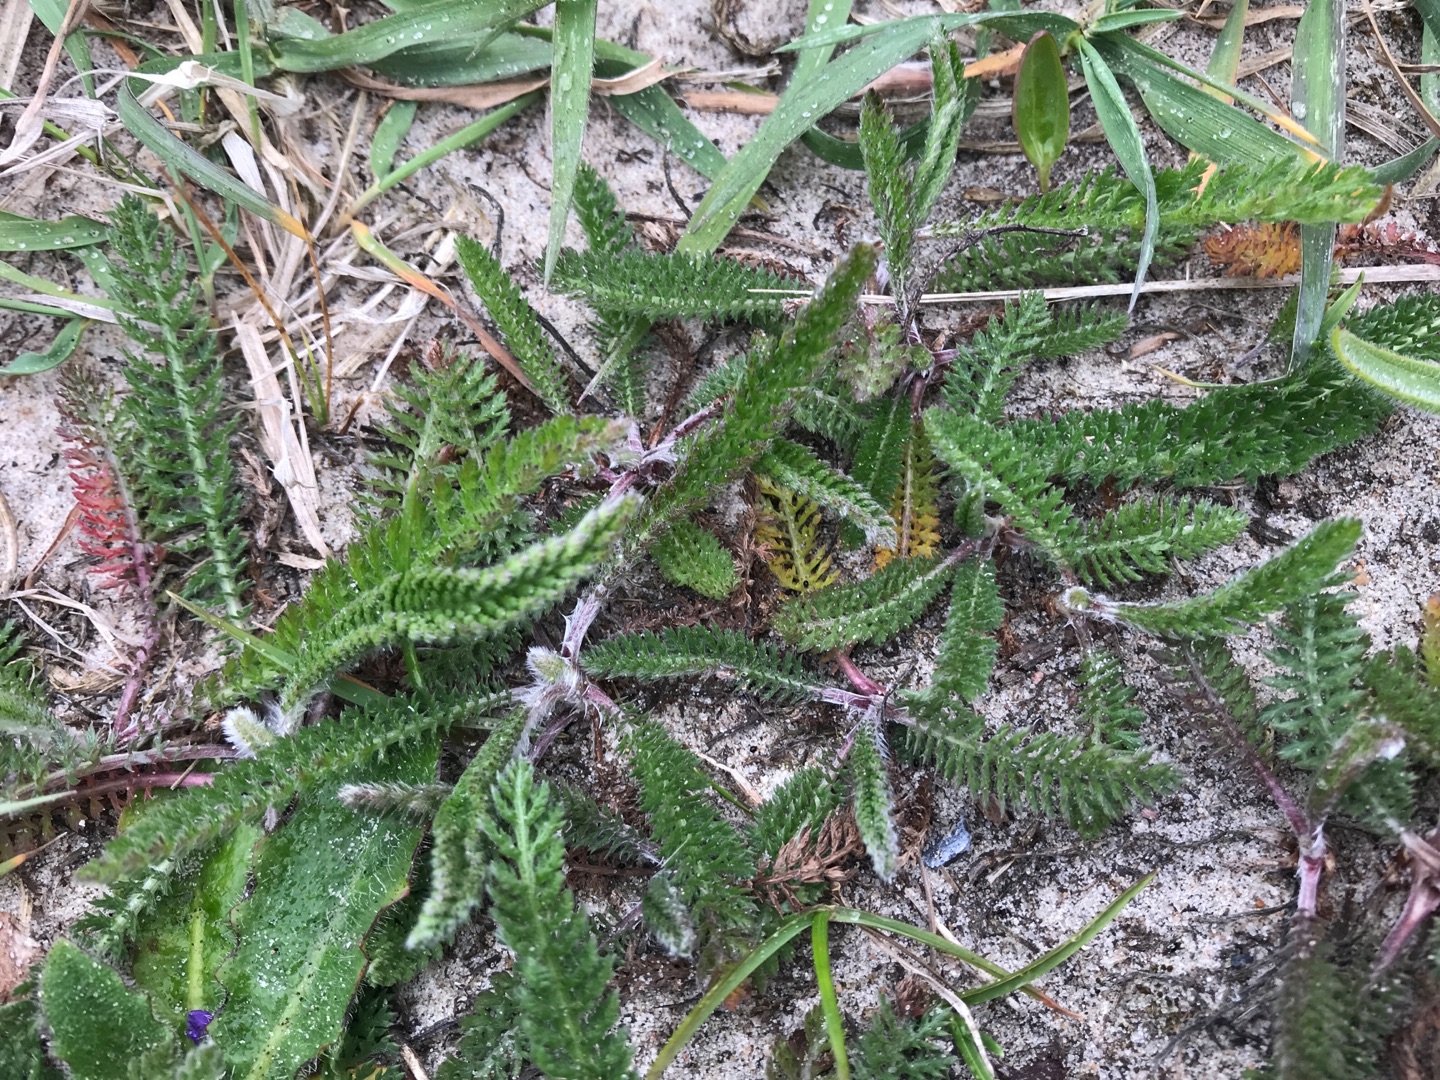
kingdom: Plantae
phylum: Tracheophyta
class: Magnoliopsida
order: Asterales
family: Asteraceae
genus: Achillea
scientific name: Achillea millefolium
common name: Almindelig røllike
